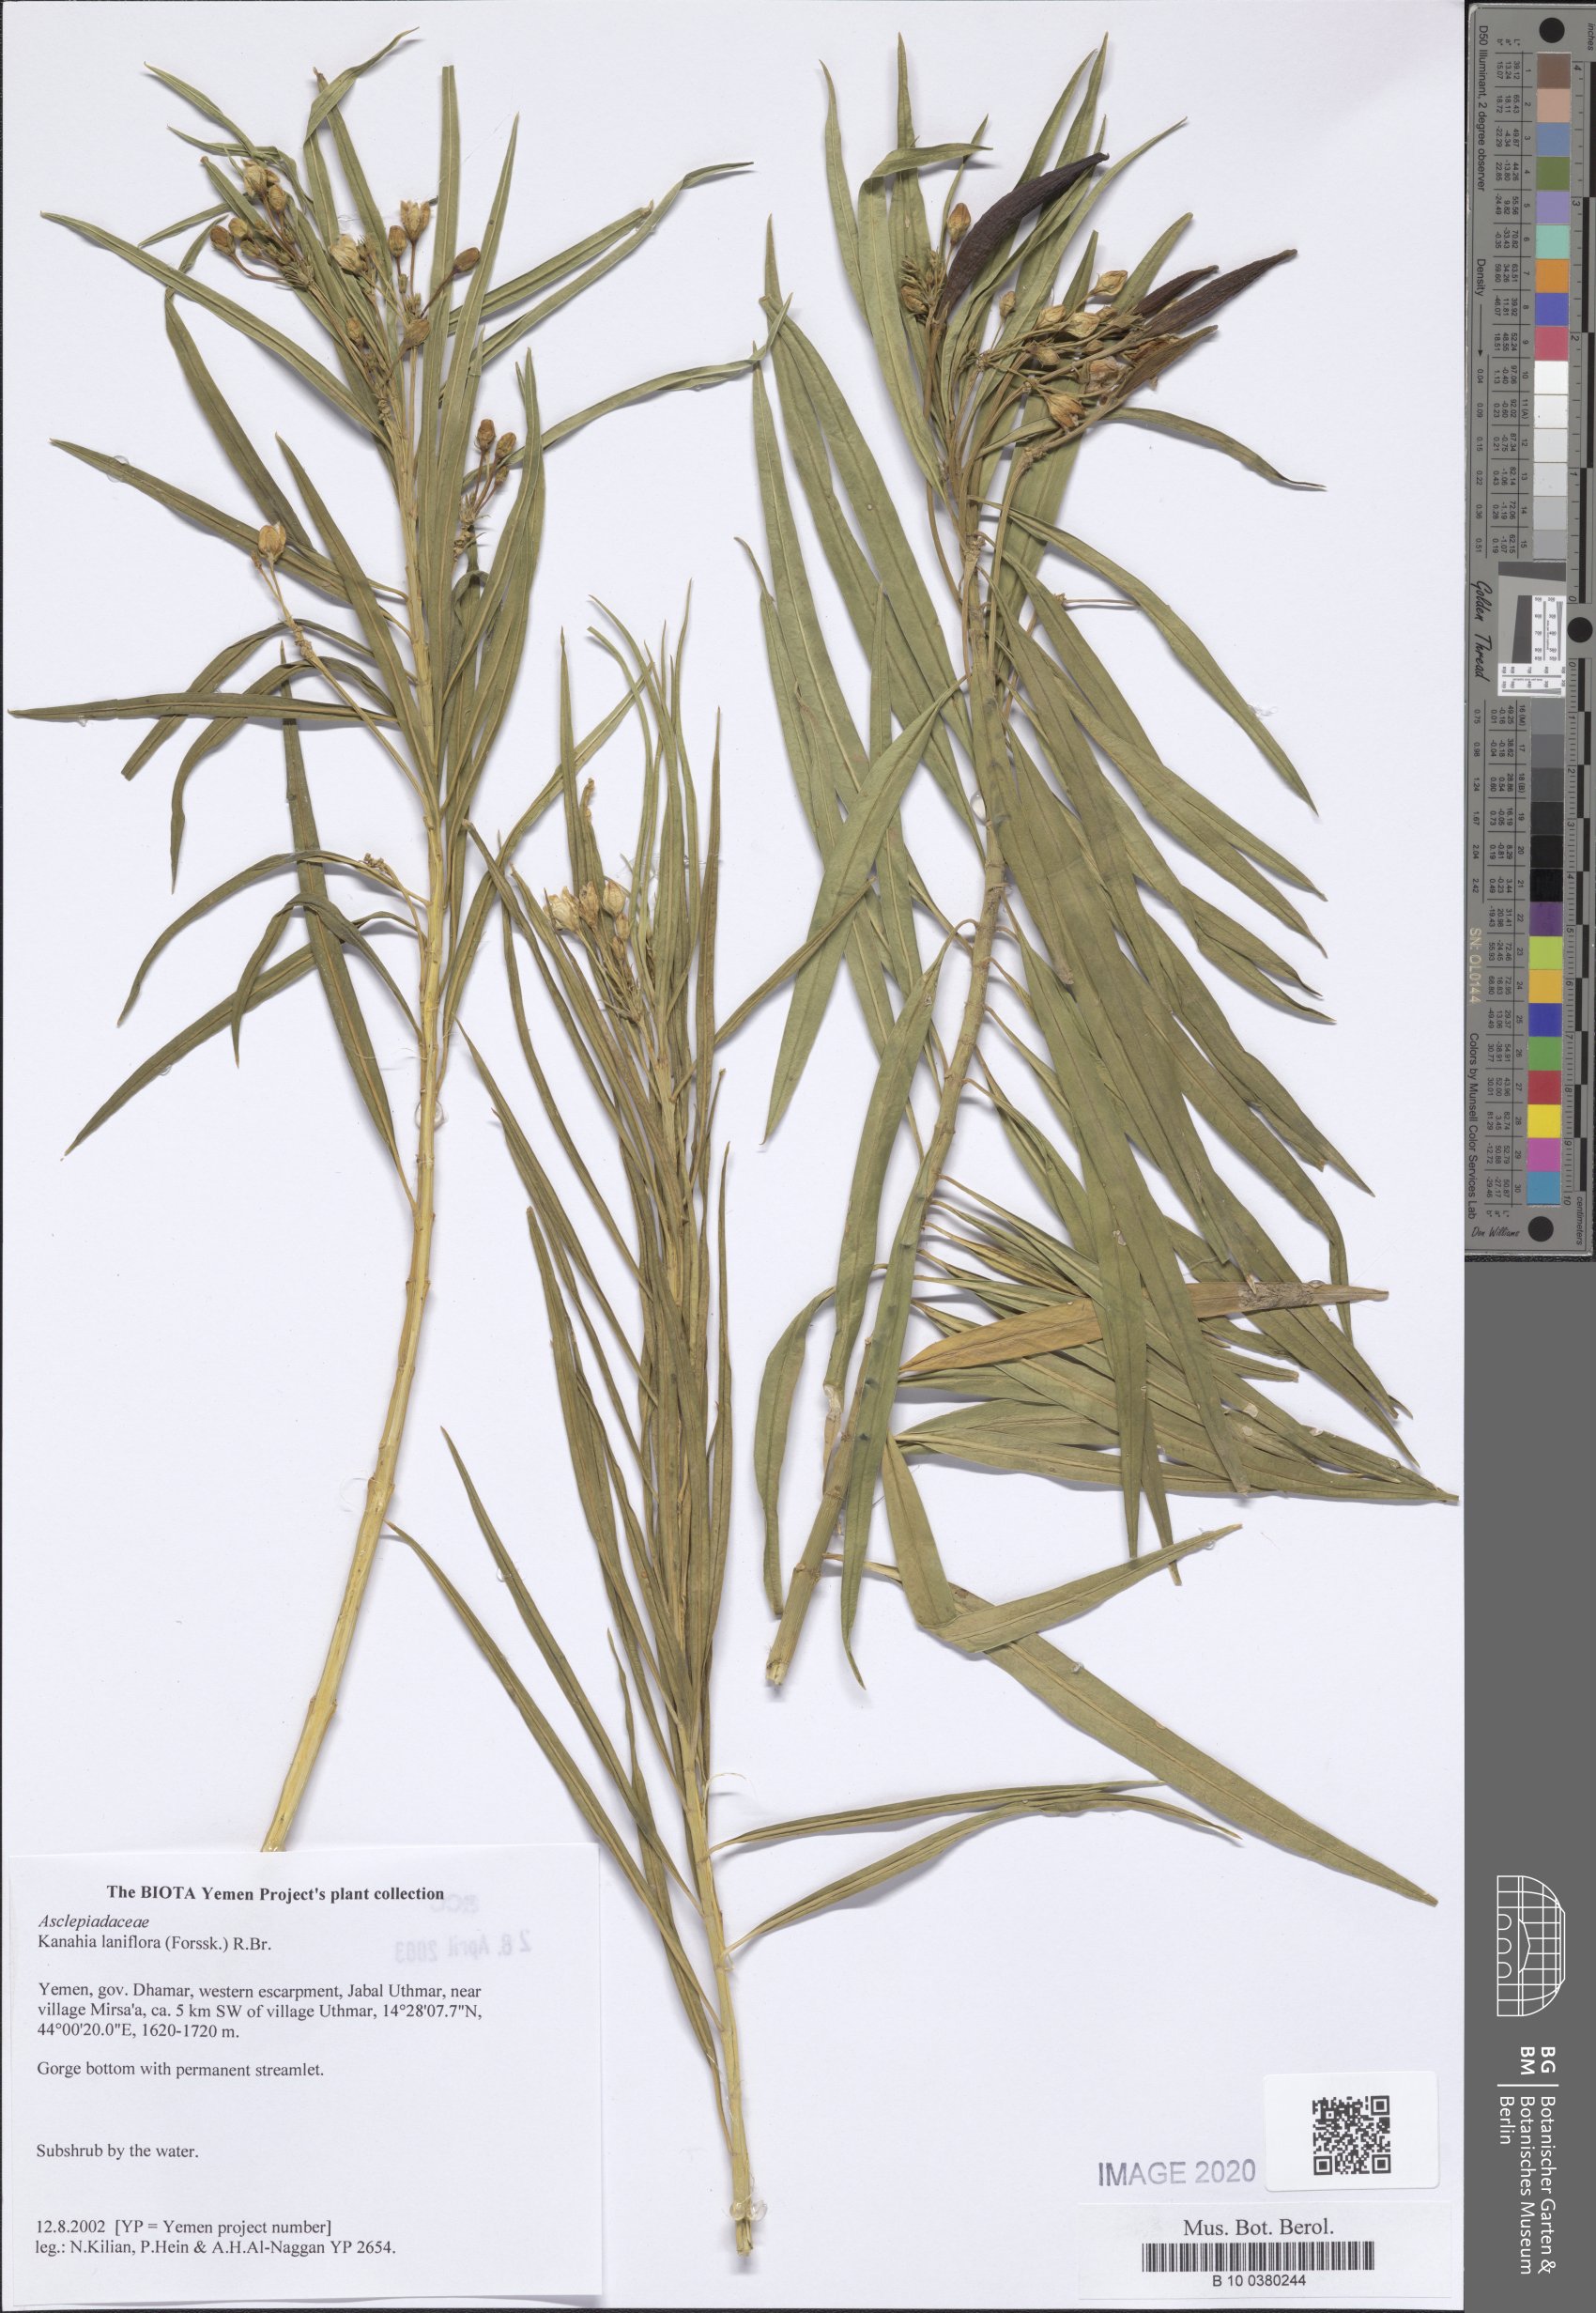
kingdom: Plantae
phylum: Tracheophyta
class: Magnoliopsida
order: Gentianales
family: Apocynaceae
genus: Kanahia
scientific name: Kanahia laniflora
